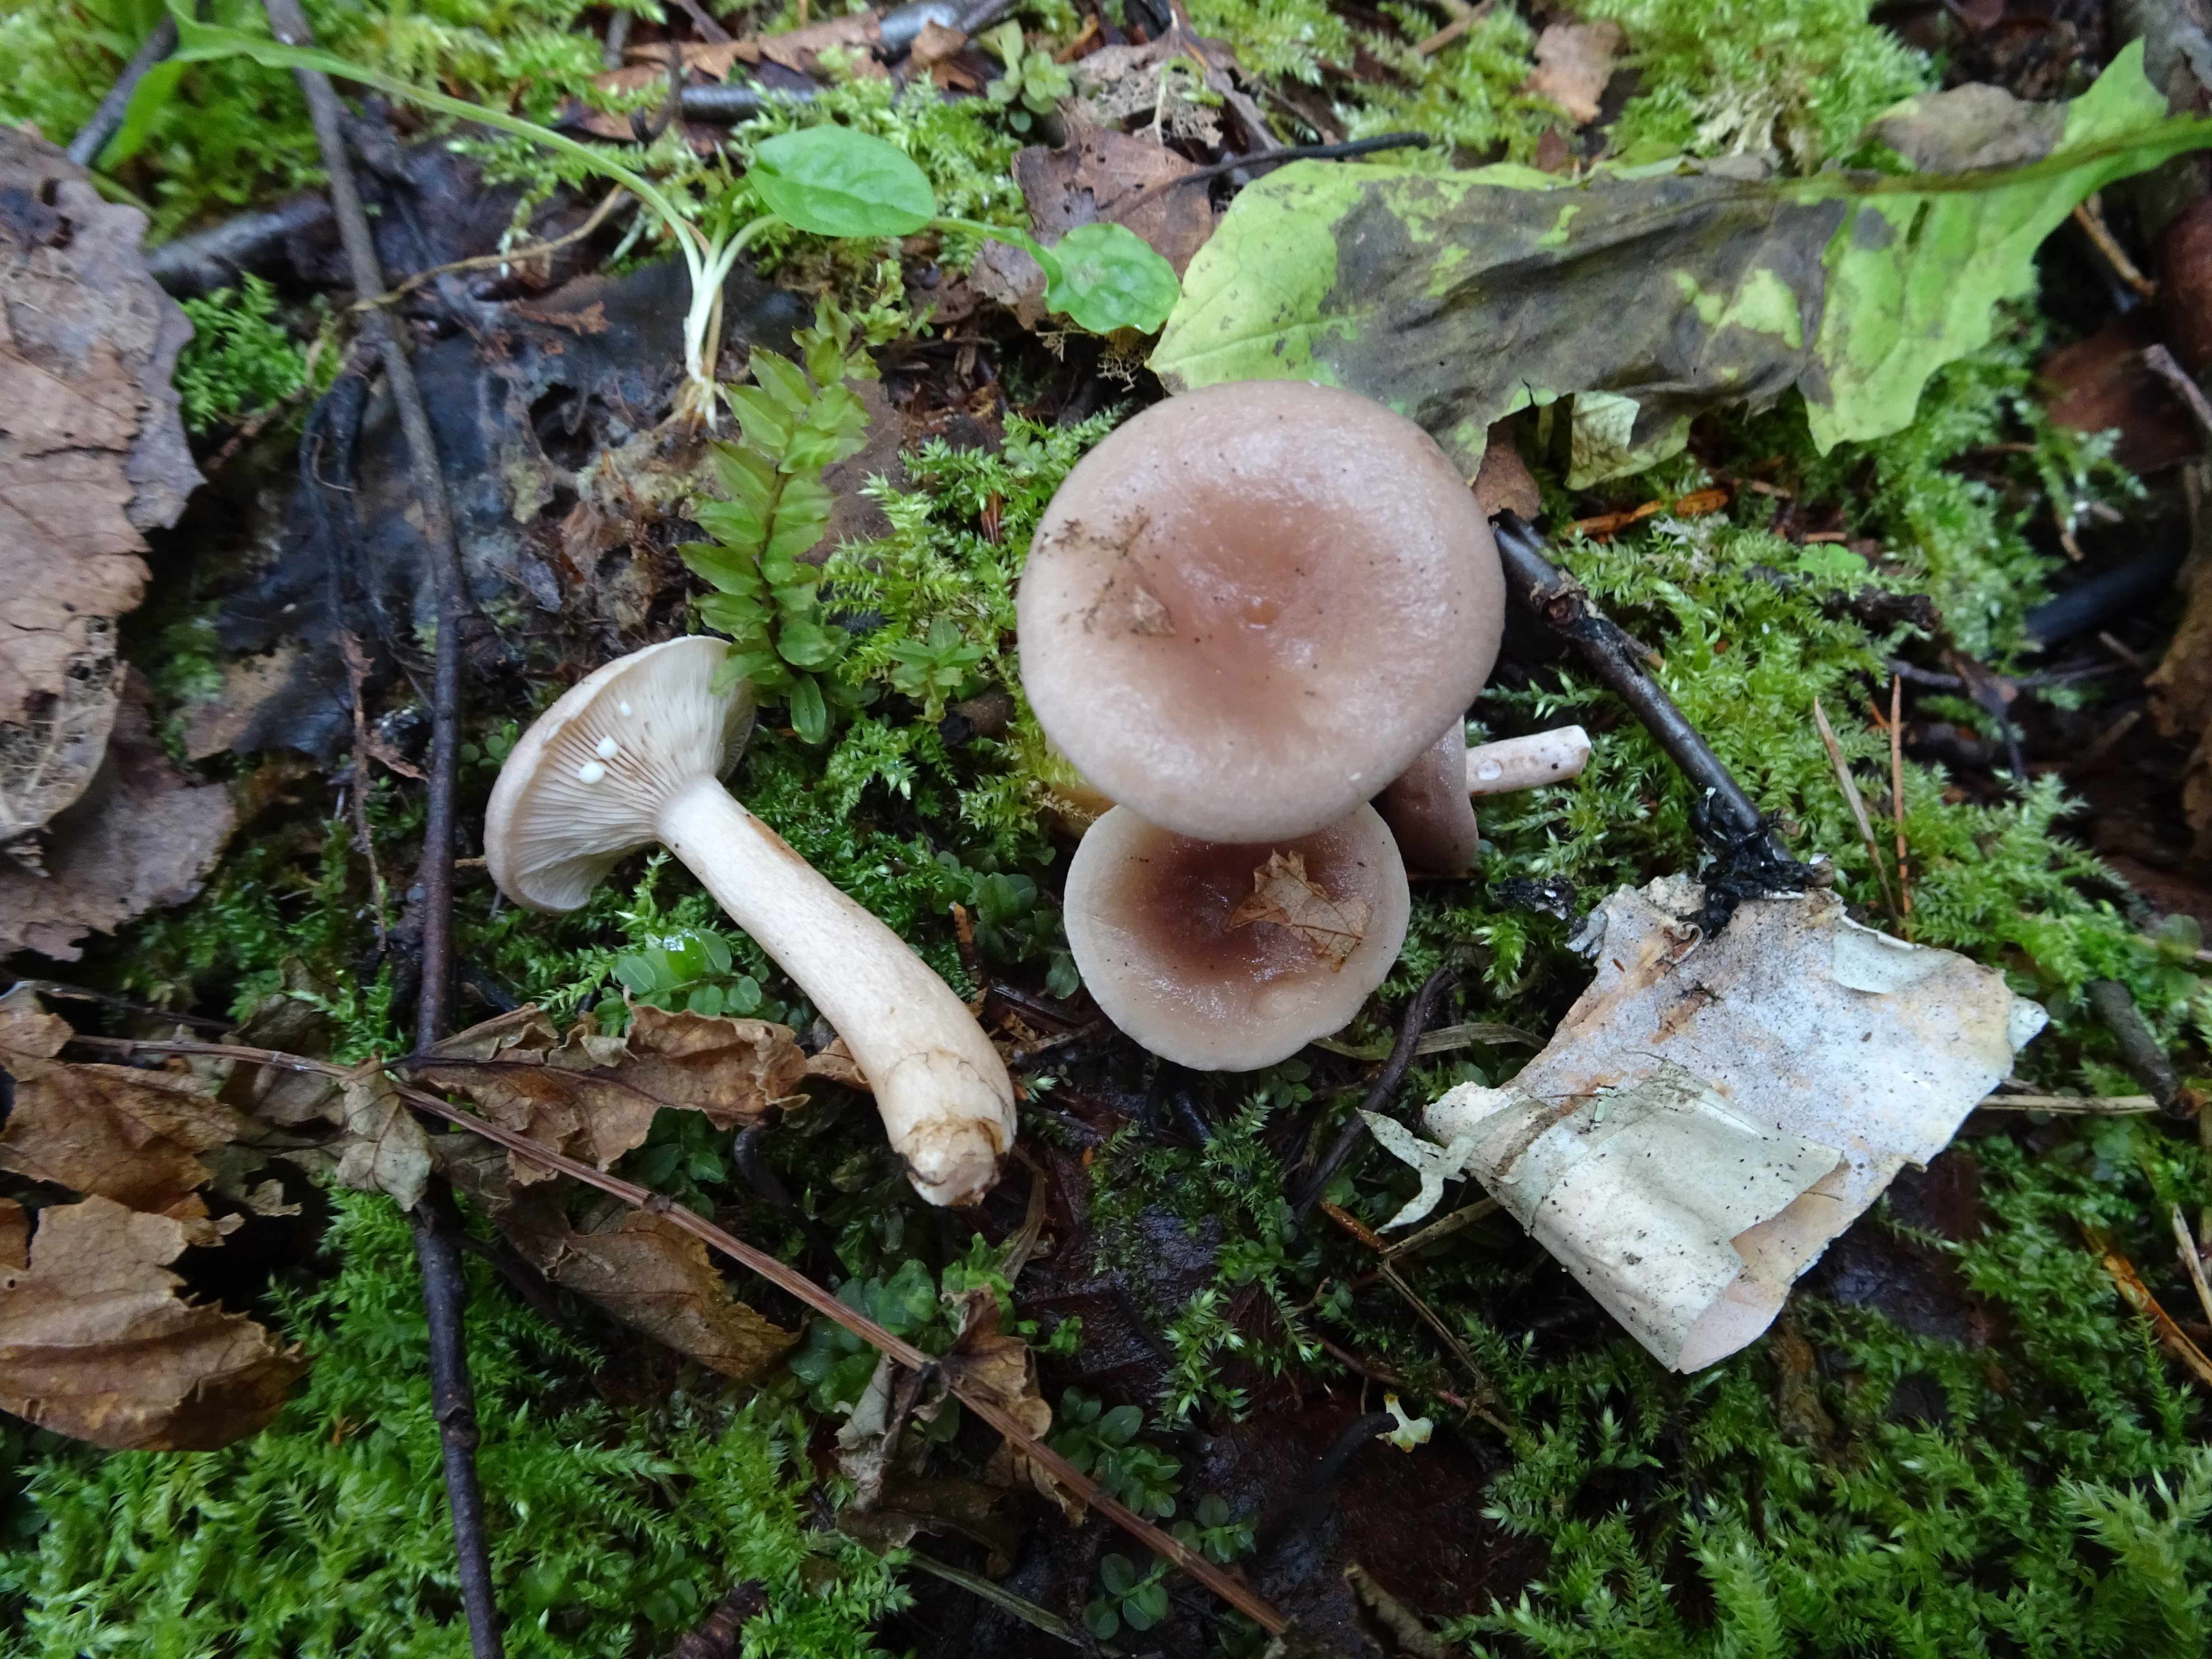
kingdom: Fungi
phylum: Basidiomycota
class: Agaricomycetes
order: Russulales
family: Russulaceae
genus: Lactarius
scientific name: Lactarius vietus
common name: Grey milk-cap
